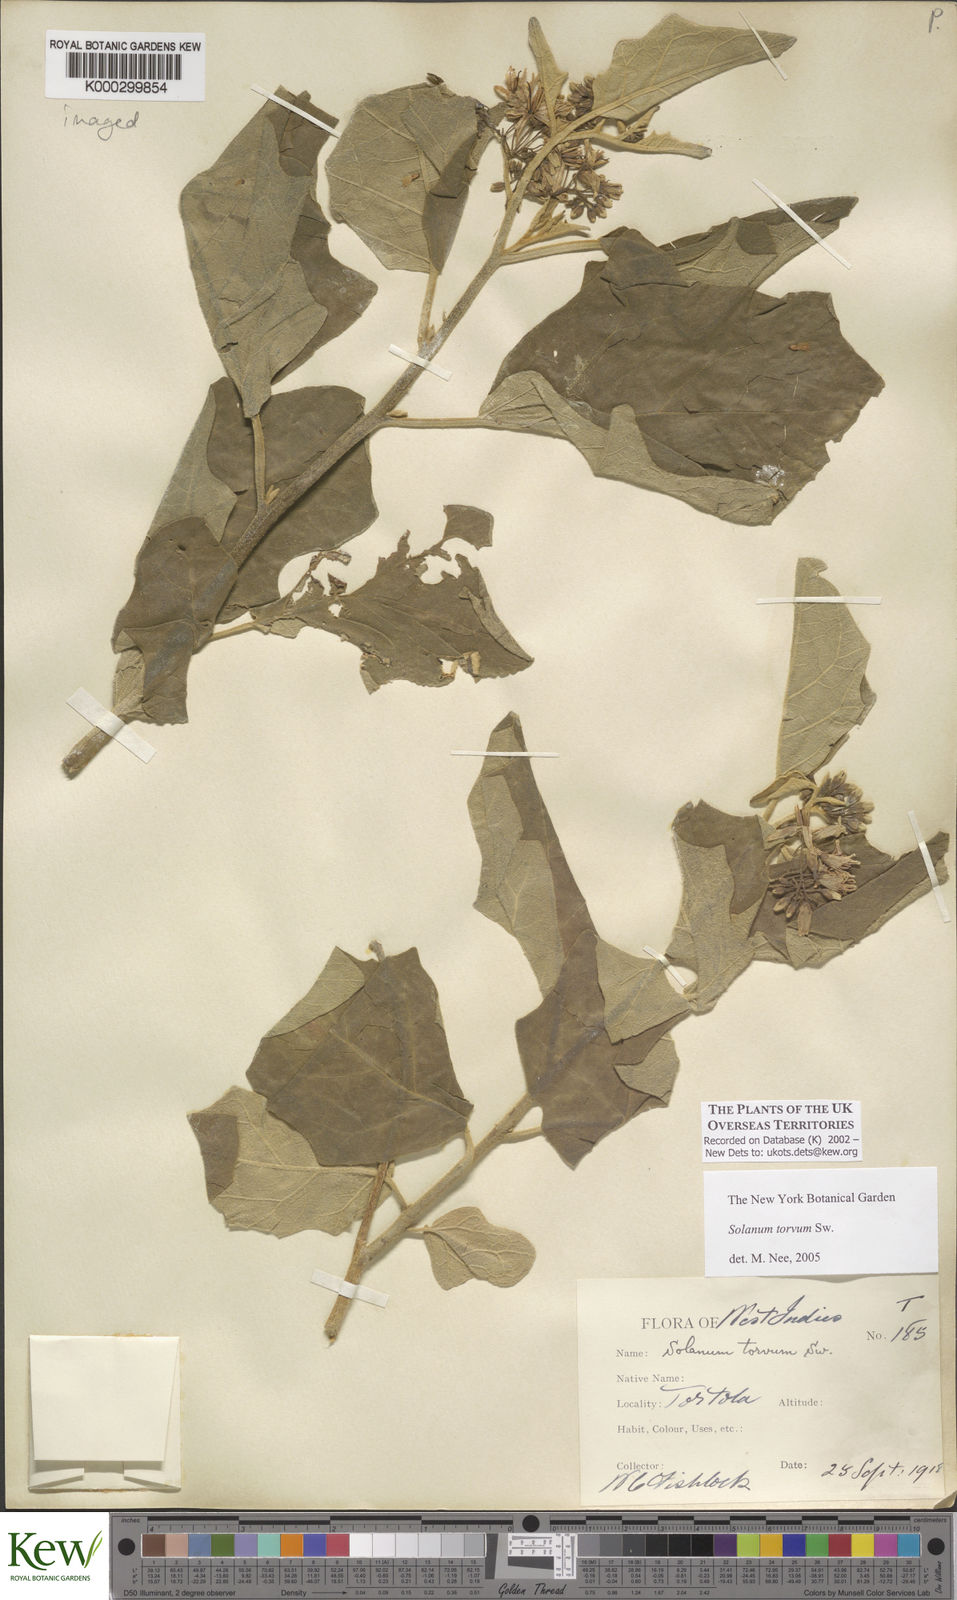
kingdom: Plantae
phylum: Tracheophyta
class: Magnoliopsida
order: Solanales
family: Solanaceae
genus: Solanum
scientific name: Solanum torvum
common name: Turkey berry
